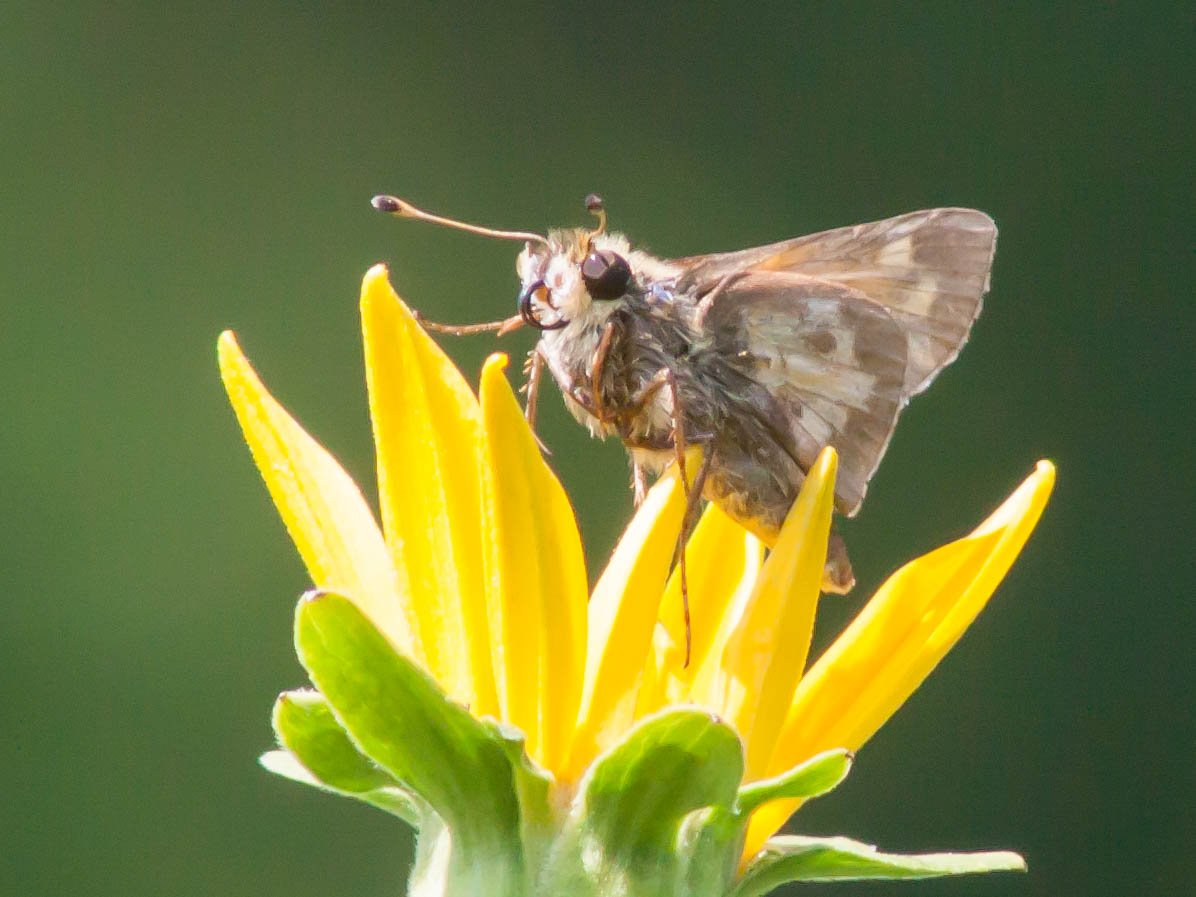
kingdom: Animalia
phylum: Arthropoda
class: Insecta
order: Lepidoptera
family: Hesperiidae
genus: Atalopedes
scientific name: Atalopedes campestris
